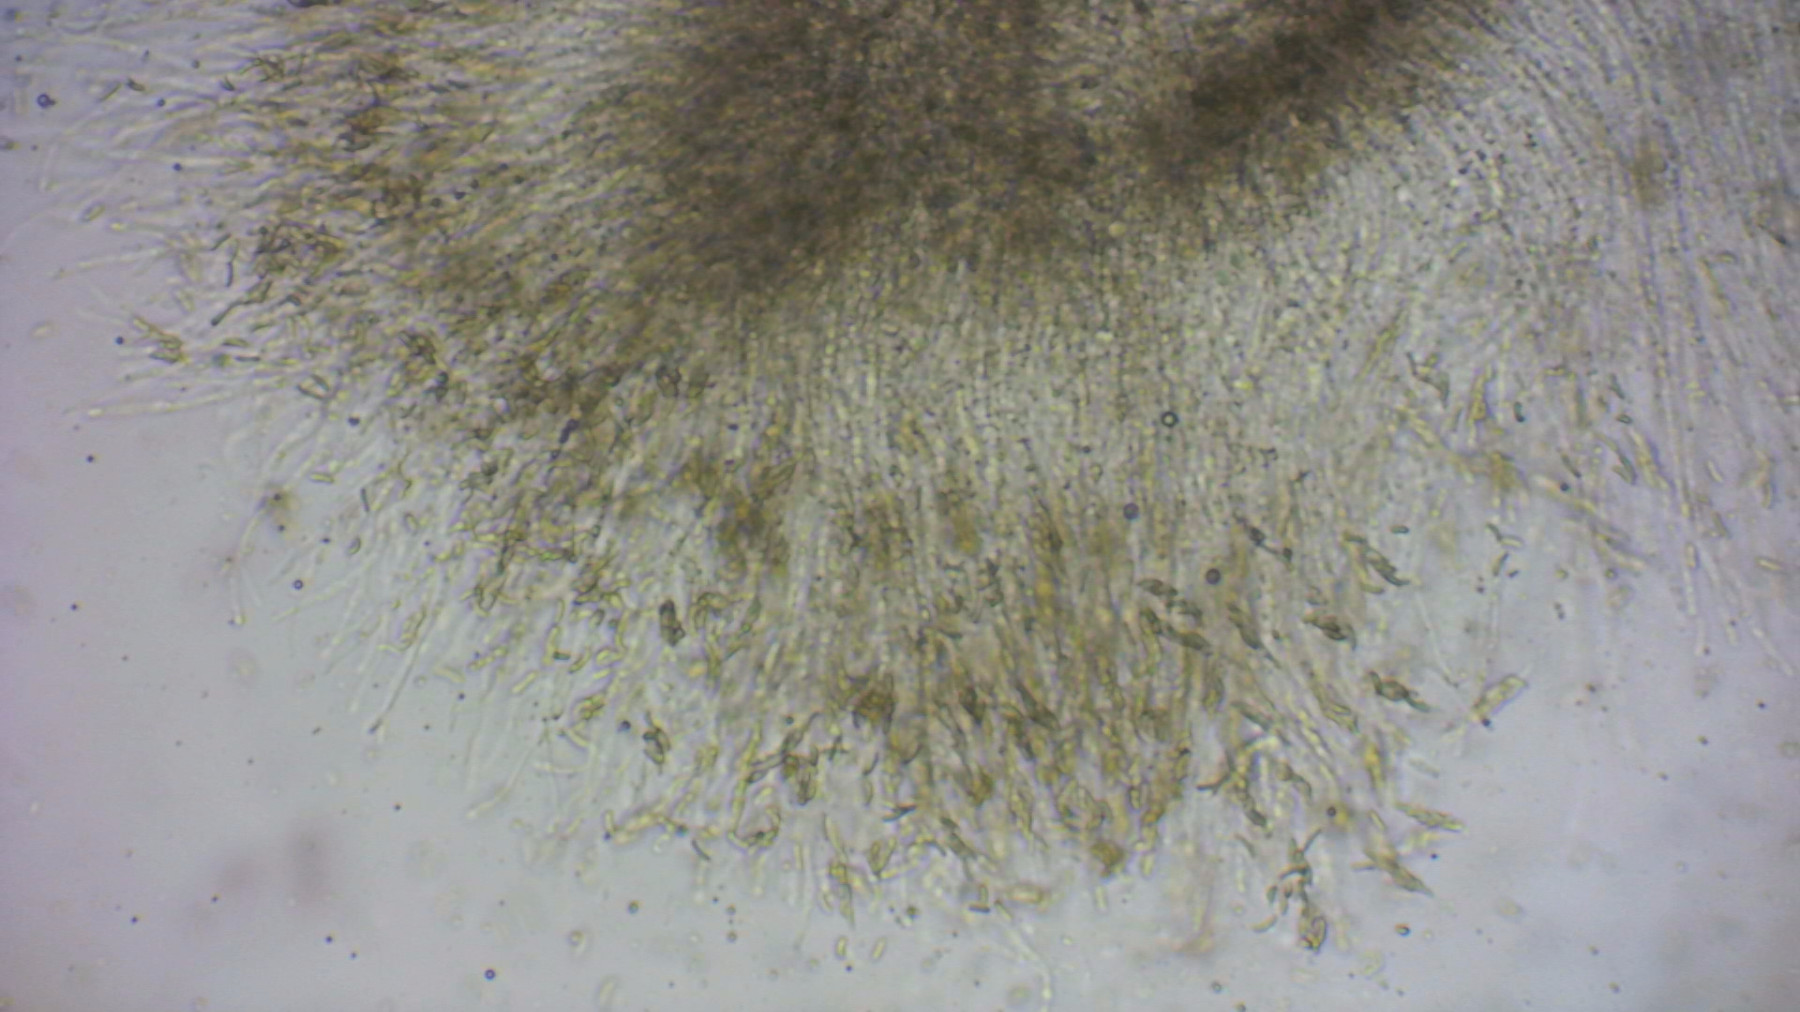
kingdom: Fungi
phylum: Ascomycota
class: Sordariomycetes
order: Xylariales
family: Diatrypaceae
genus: Eutypella
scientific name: Eutypella sorbi
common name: rønne-kulskorpe
